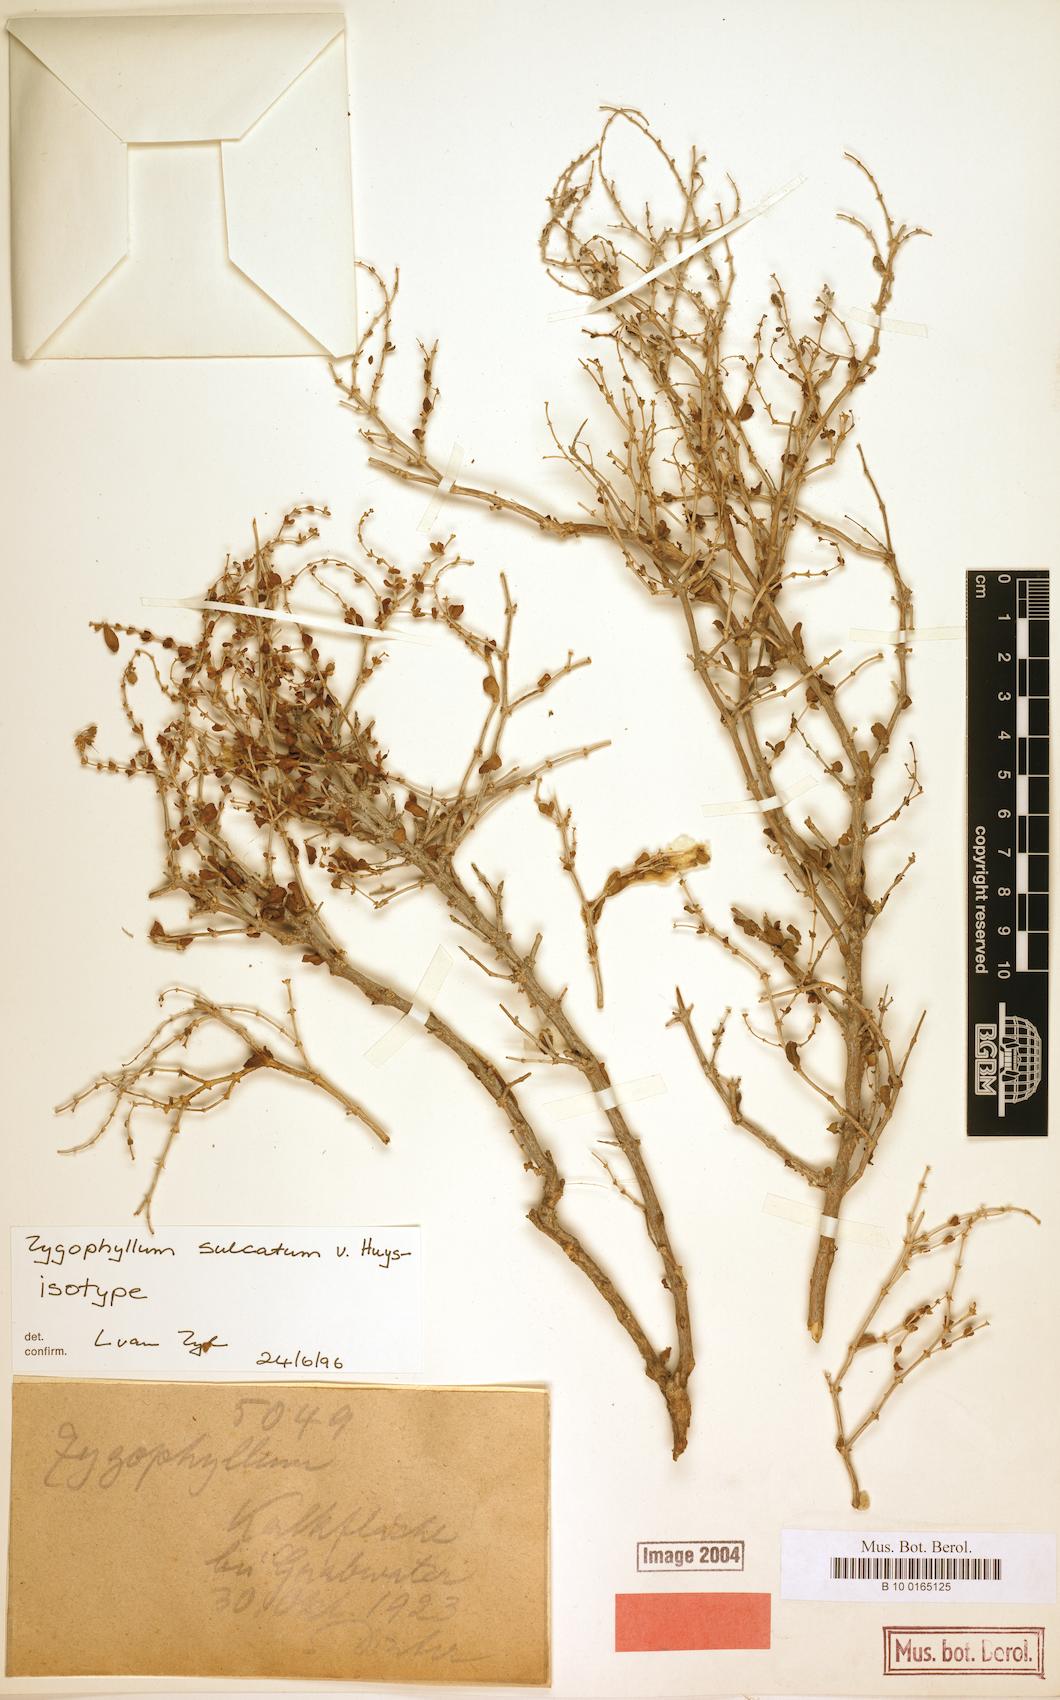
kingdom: Plantae
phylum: Tracheophyta
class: Magnoliopsida
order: Zygophyllales
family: Zygophyllaceae
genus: Roepera
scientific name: Roepera leucoclada
